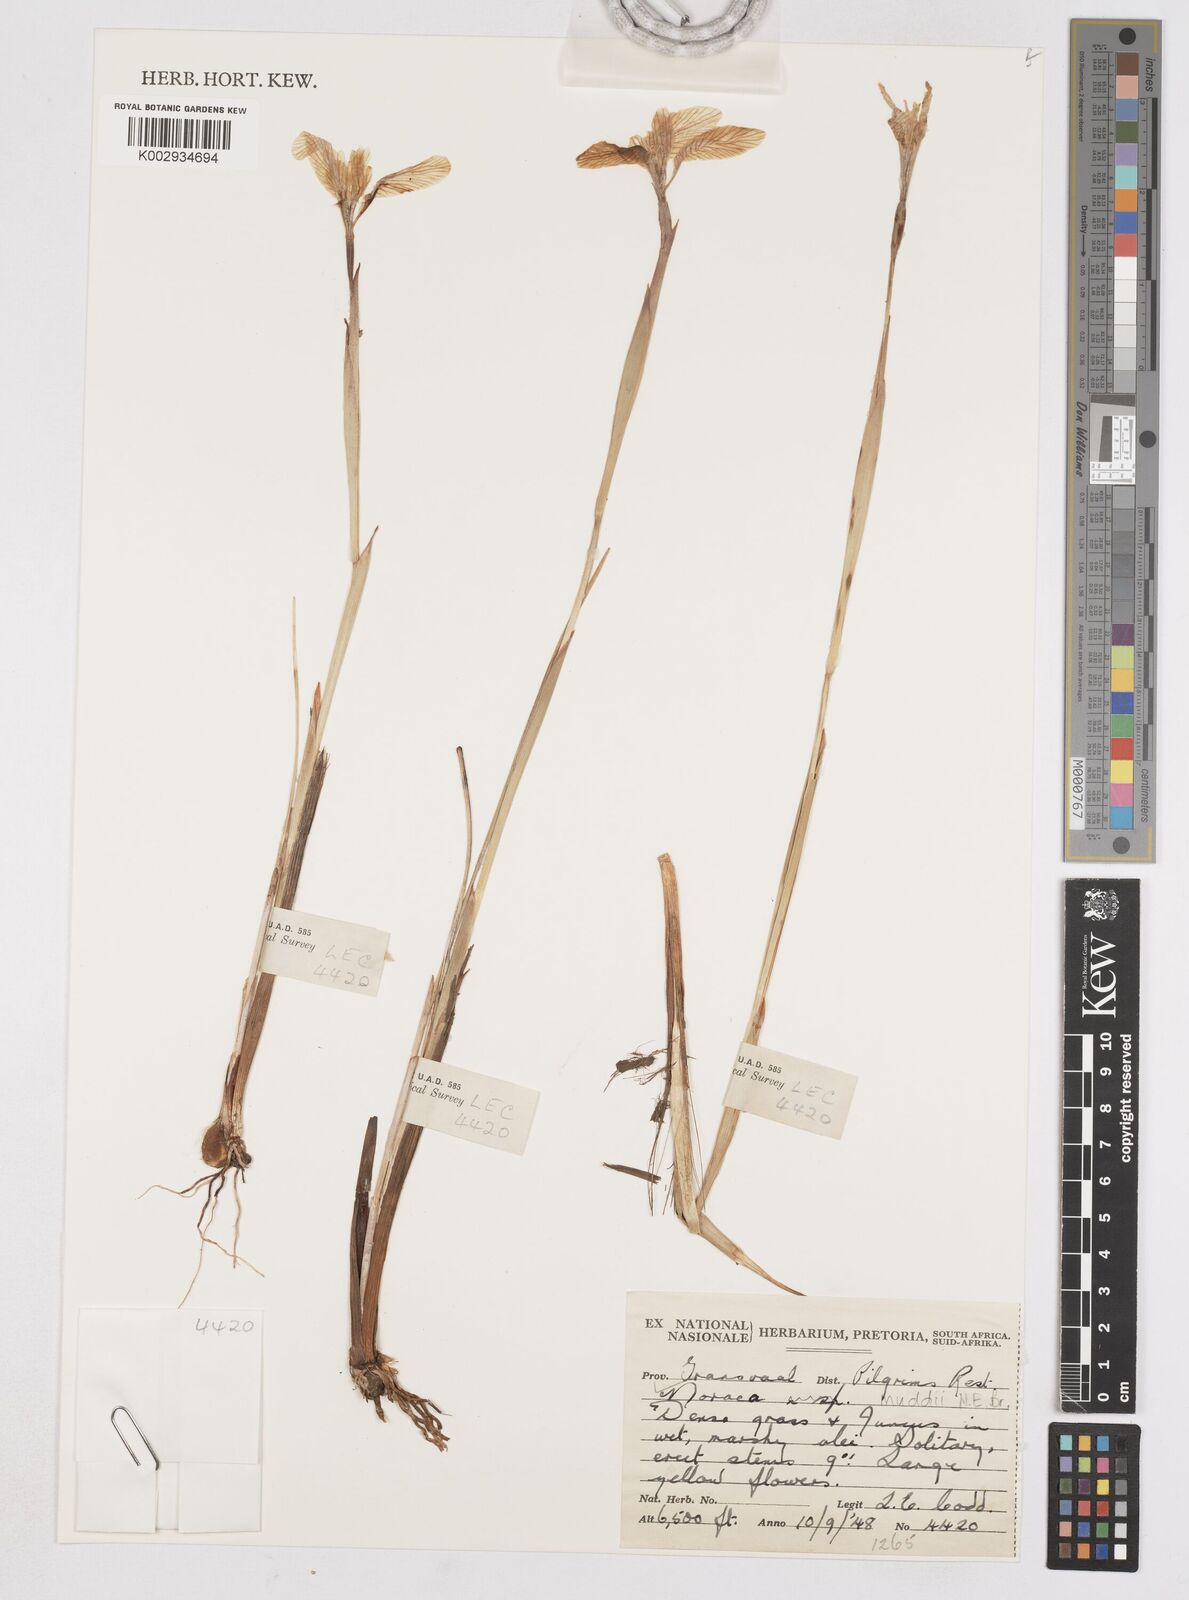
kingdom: Plantae
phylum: Tracheophyta
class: Liliopsida
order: Asparagales
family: Iridaceae
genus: Moraea
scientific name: Moraea muddii
